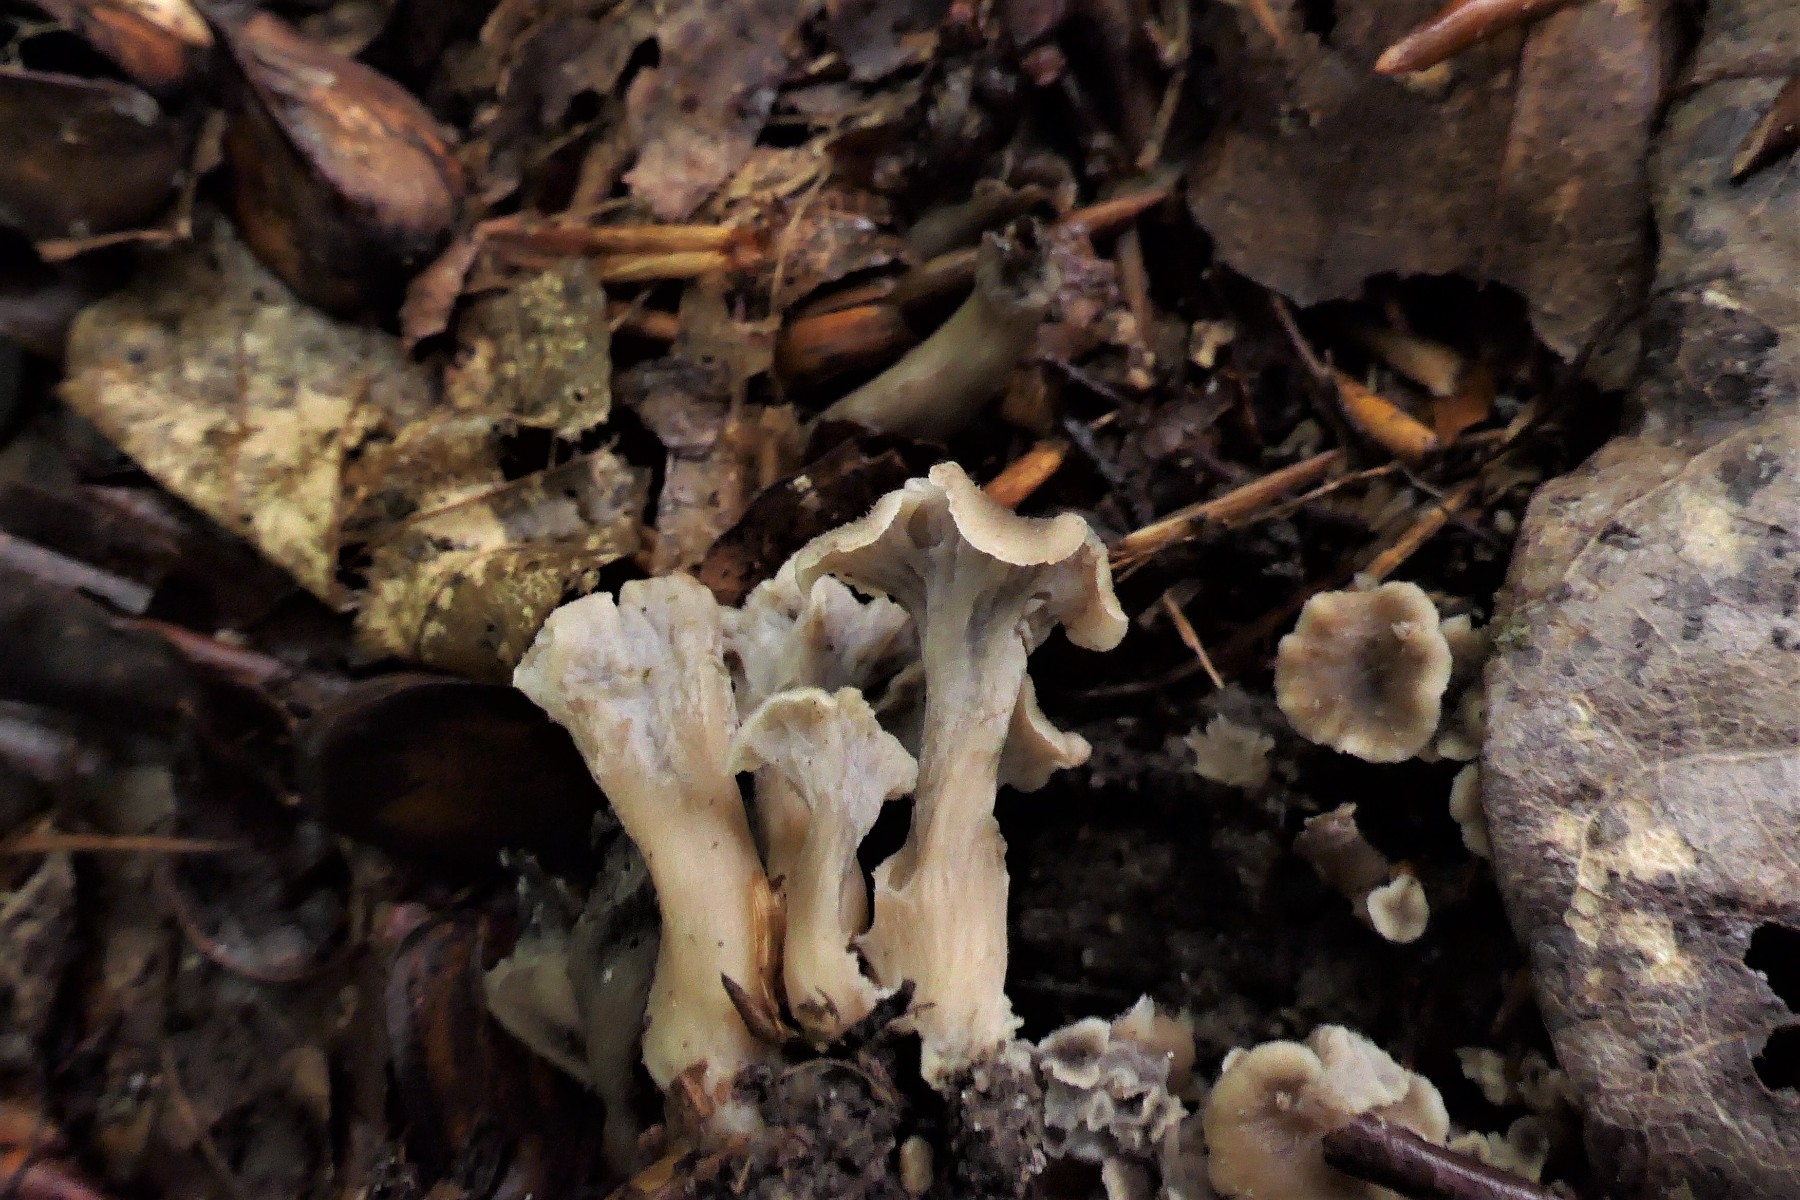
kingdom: Fungi
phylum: Basidiomycota
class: Agaricomycetes
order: Cantharellales
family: Hydnaceae
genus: Craterellus
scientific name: Craterellus undulatus
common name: liden kantarel
